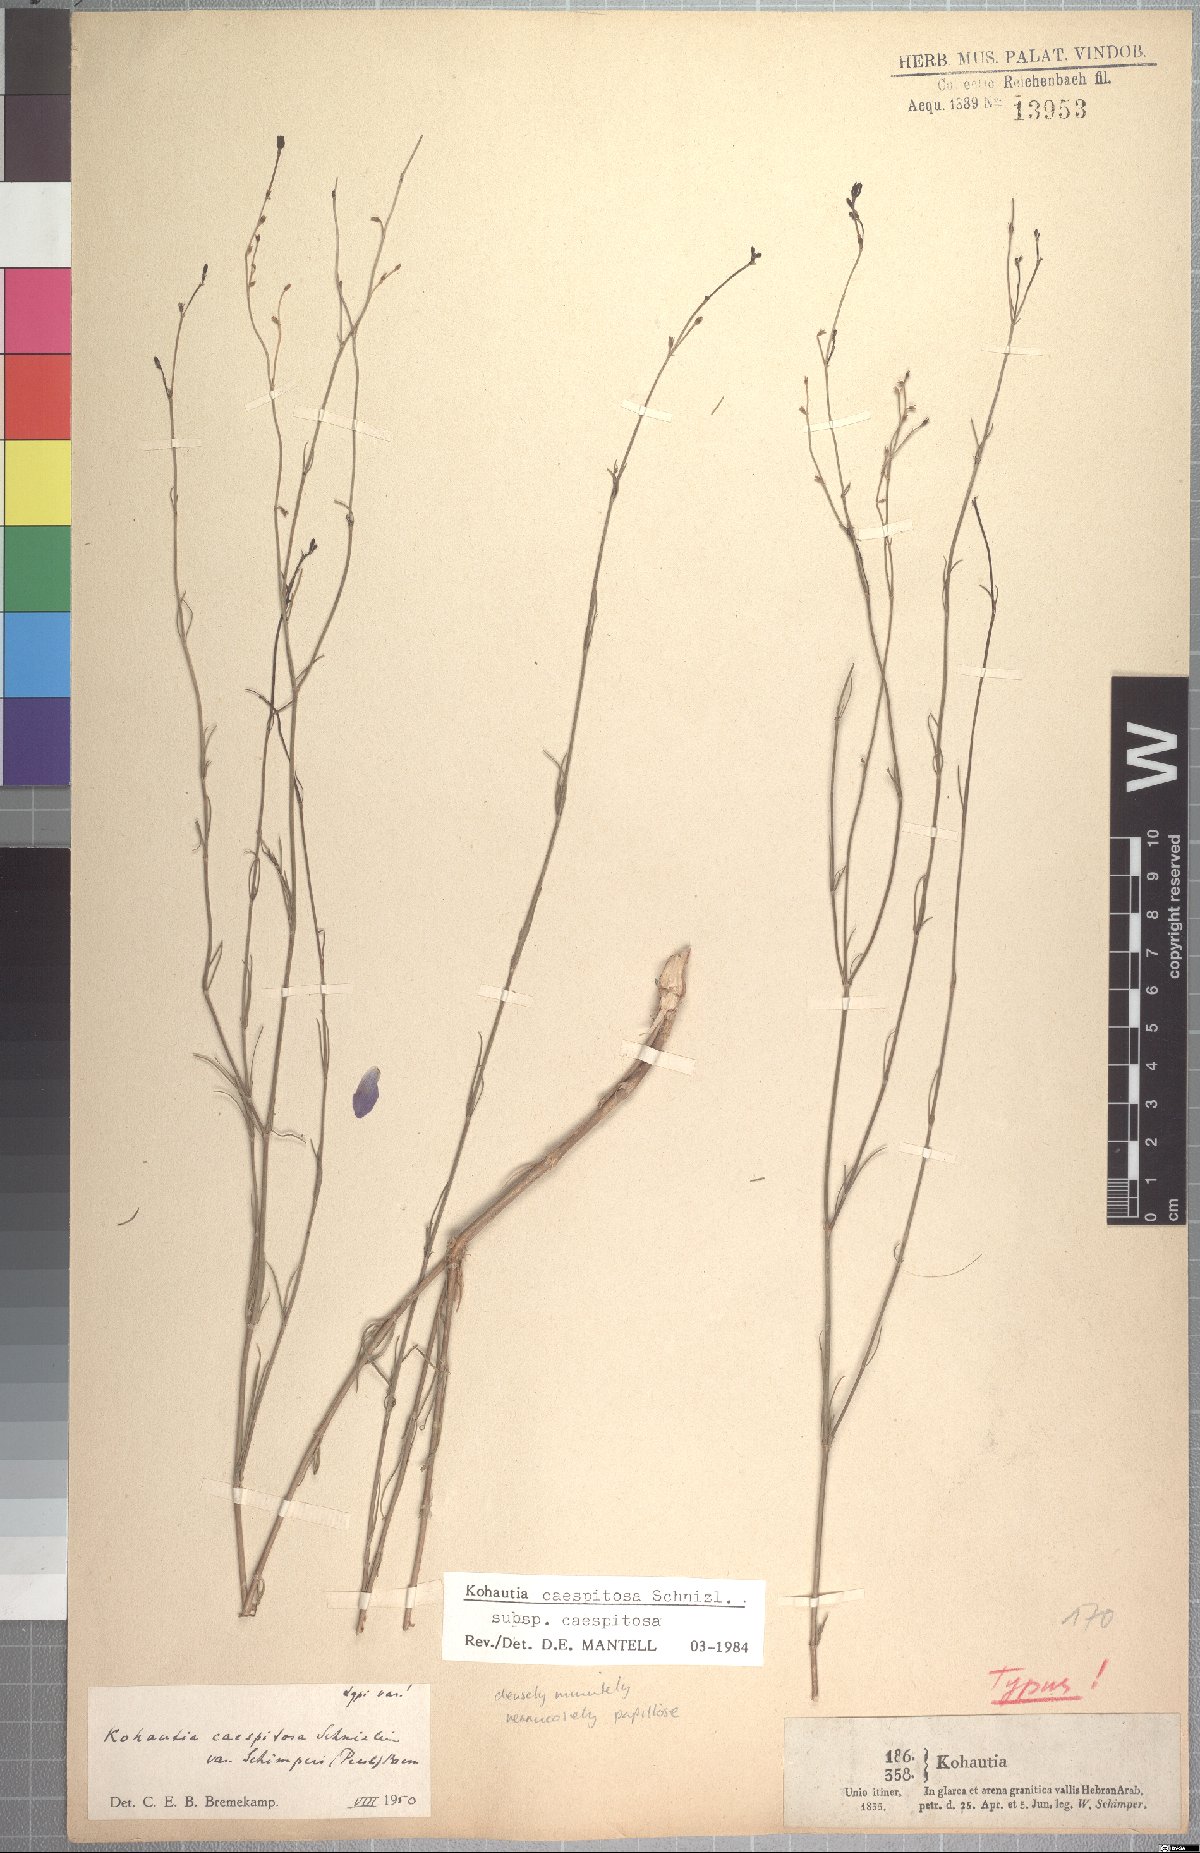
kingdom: Plantae
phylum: Tracheophyta
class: Magnoliopsida
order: Gentianales
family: Rubiaceae
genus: Kohautia
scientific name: Kohautia caespitosa
